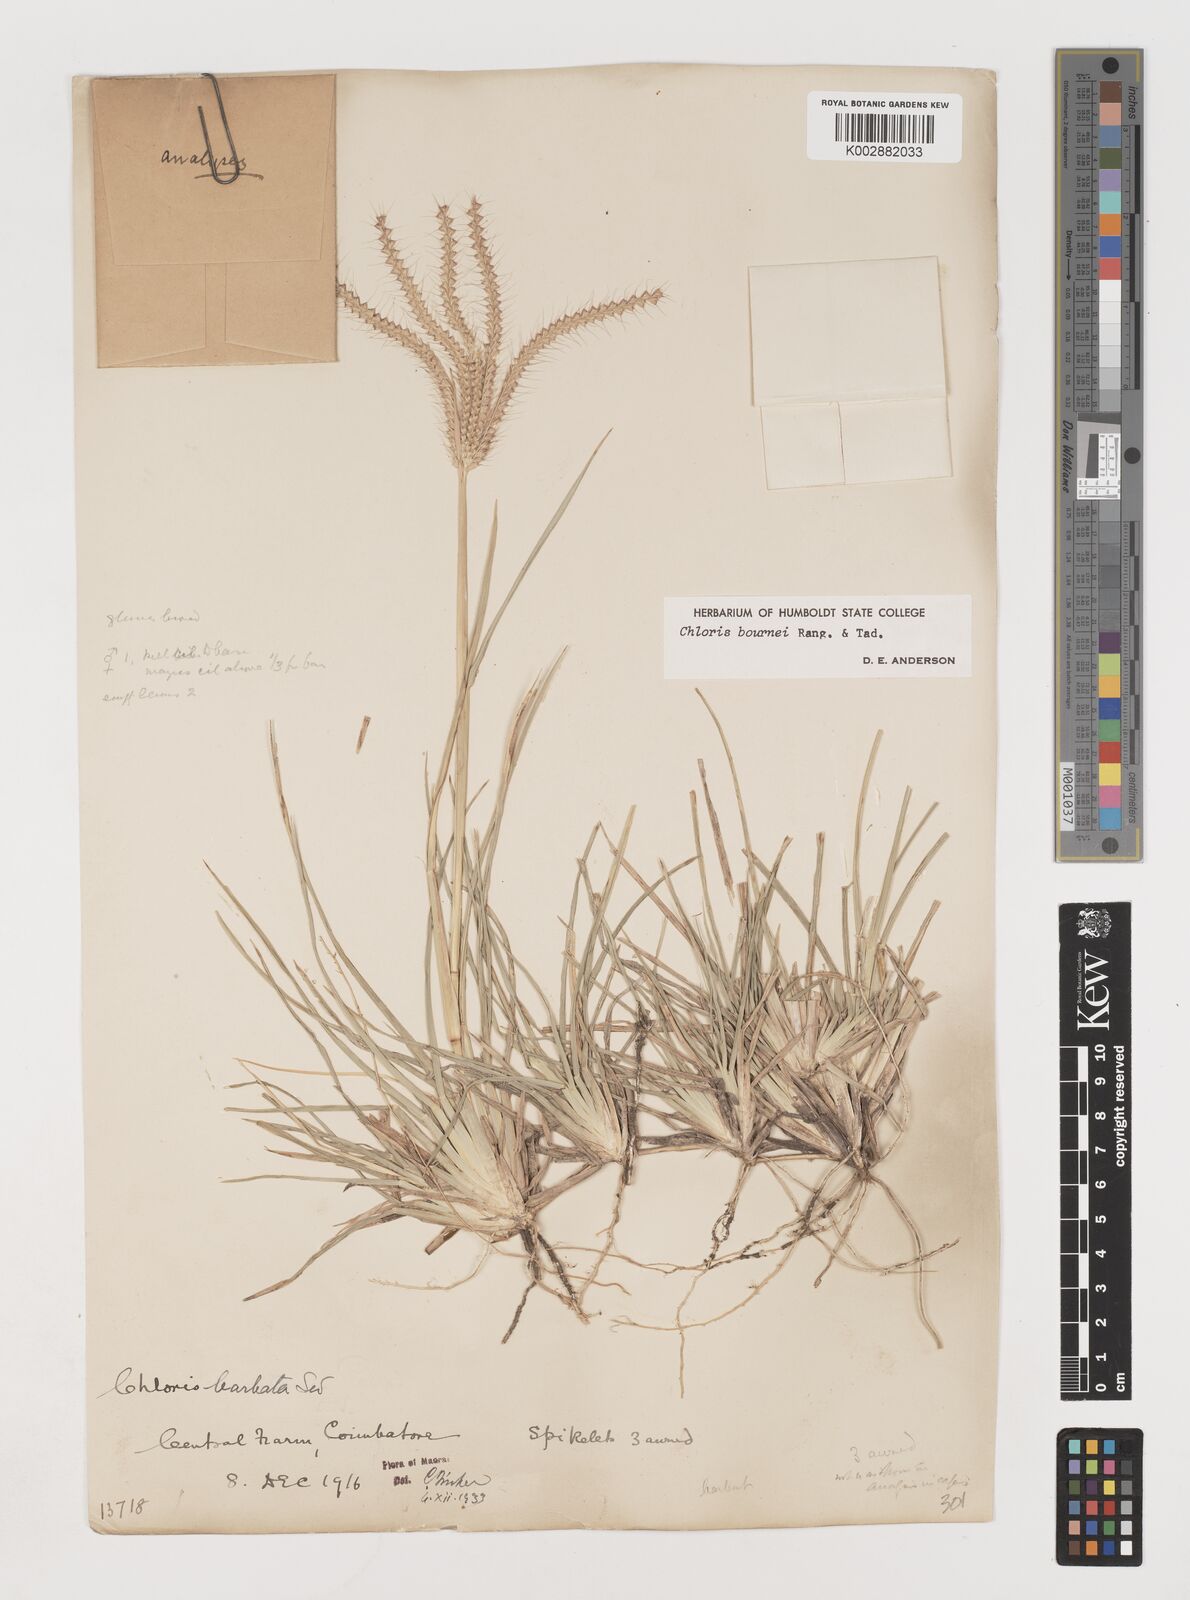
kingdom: Plantae
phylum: Tracheophyta
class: Liliopsida
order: Poales
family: Poaceae
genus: Chloris
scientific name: Chloris bournei
